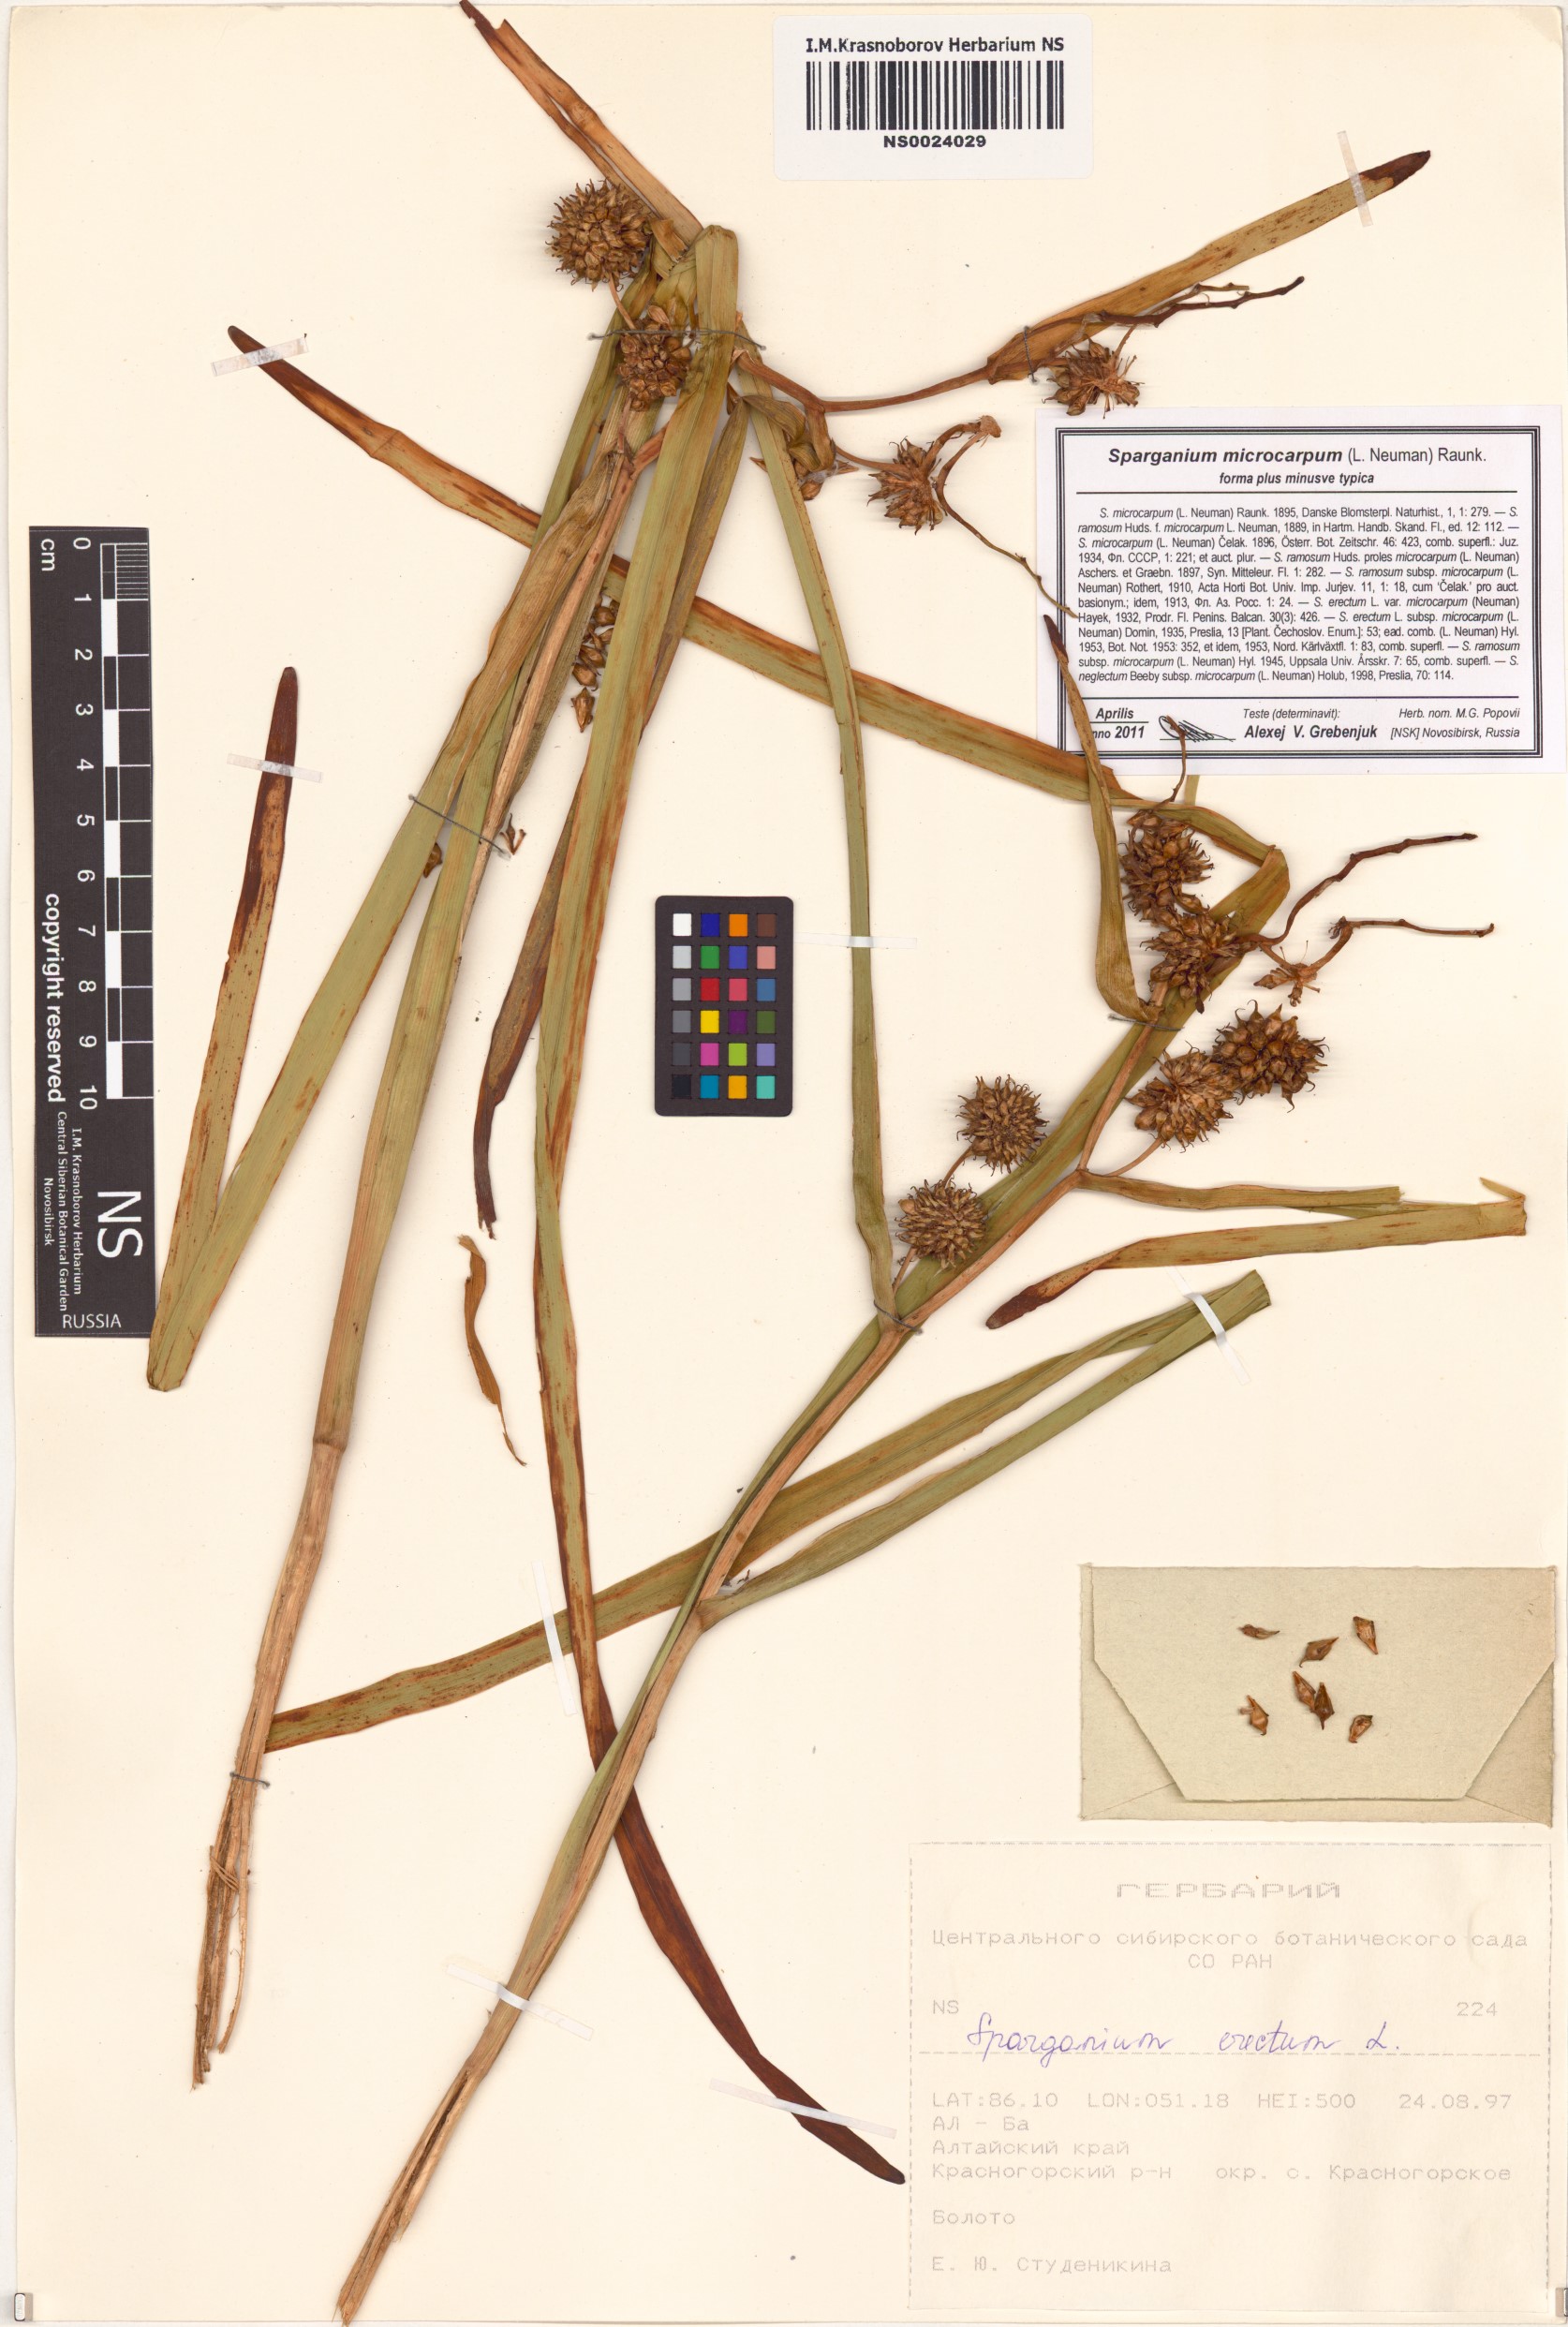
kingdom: Plantae
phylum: Tracheophyta
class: Liliopsida
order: Poales
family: Typhaceae
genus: Sparganium
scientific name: Sparganium erectum
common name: Branched bur-reed
